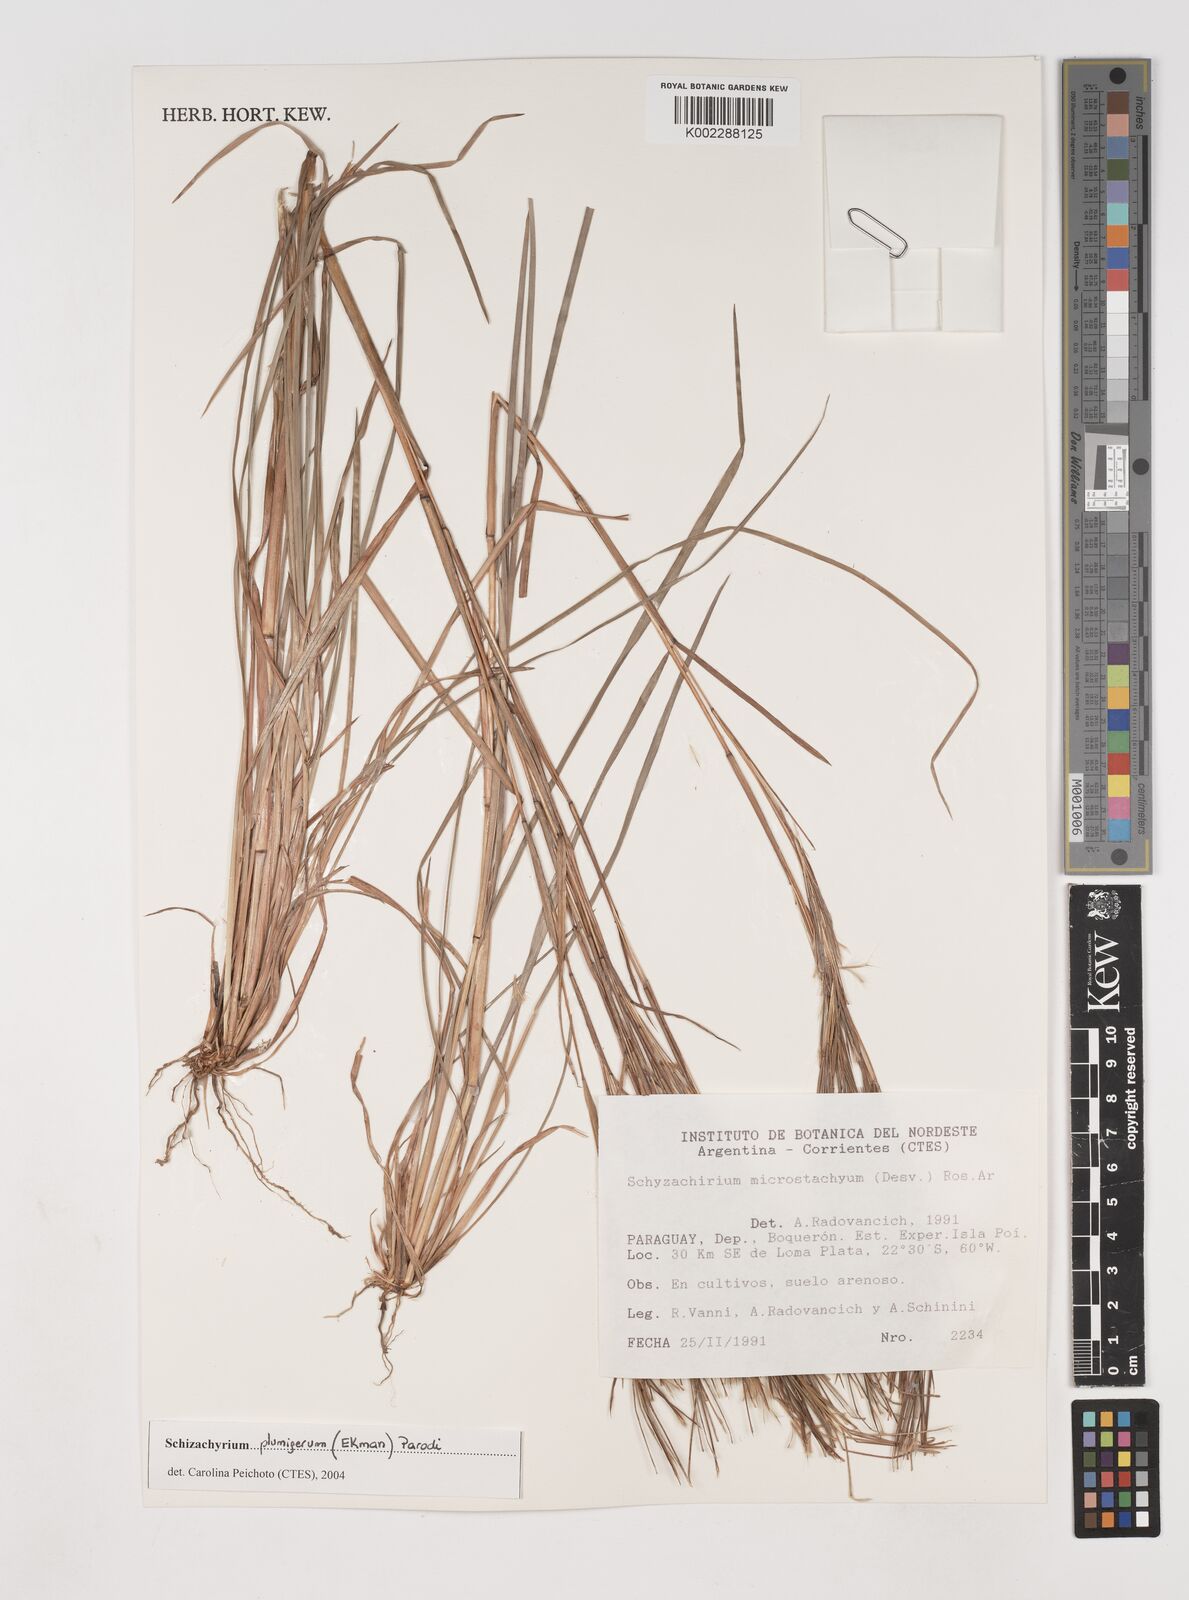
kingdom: Plantae
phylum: Tracheophyta
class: Liliopsida
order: Poales
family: Poaceae
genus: Schizachyrium
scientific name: Schizachyrium condensatum
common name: Bush beardgrass
